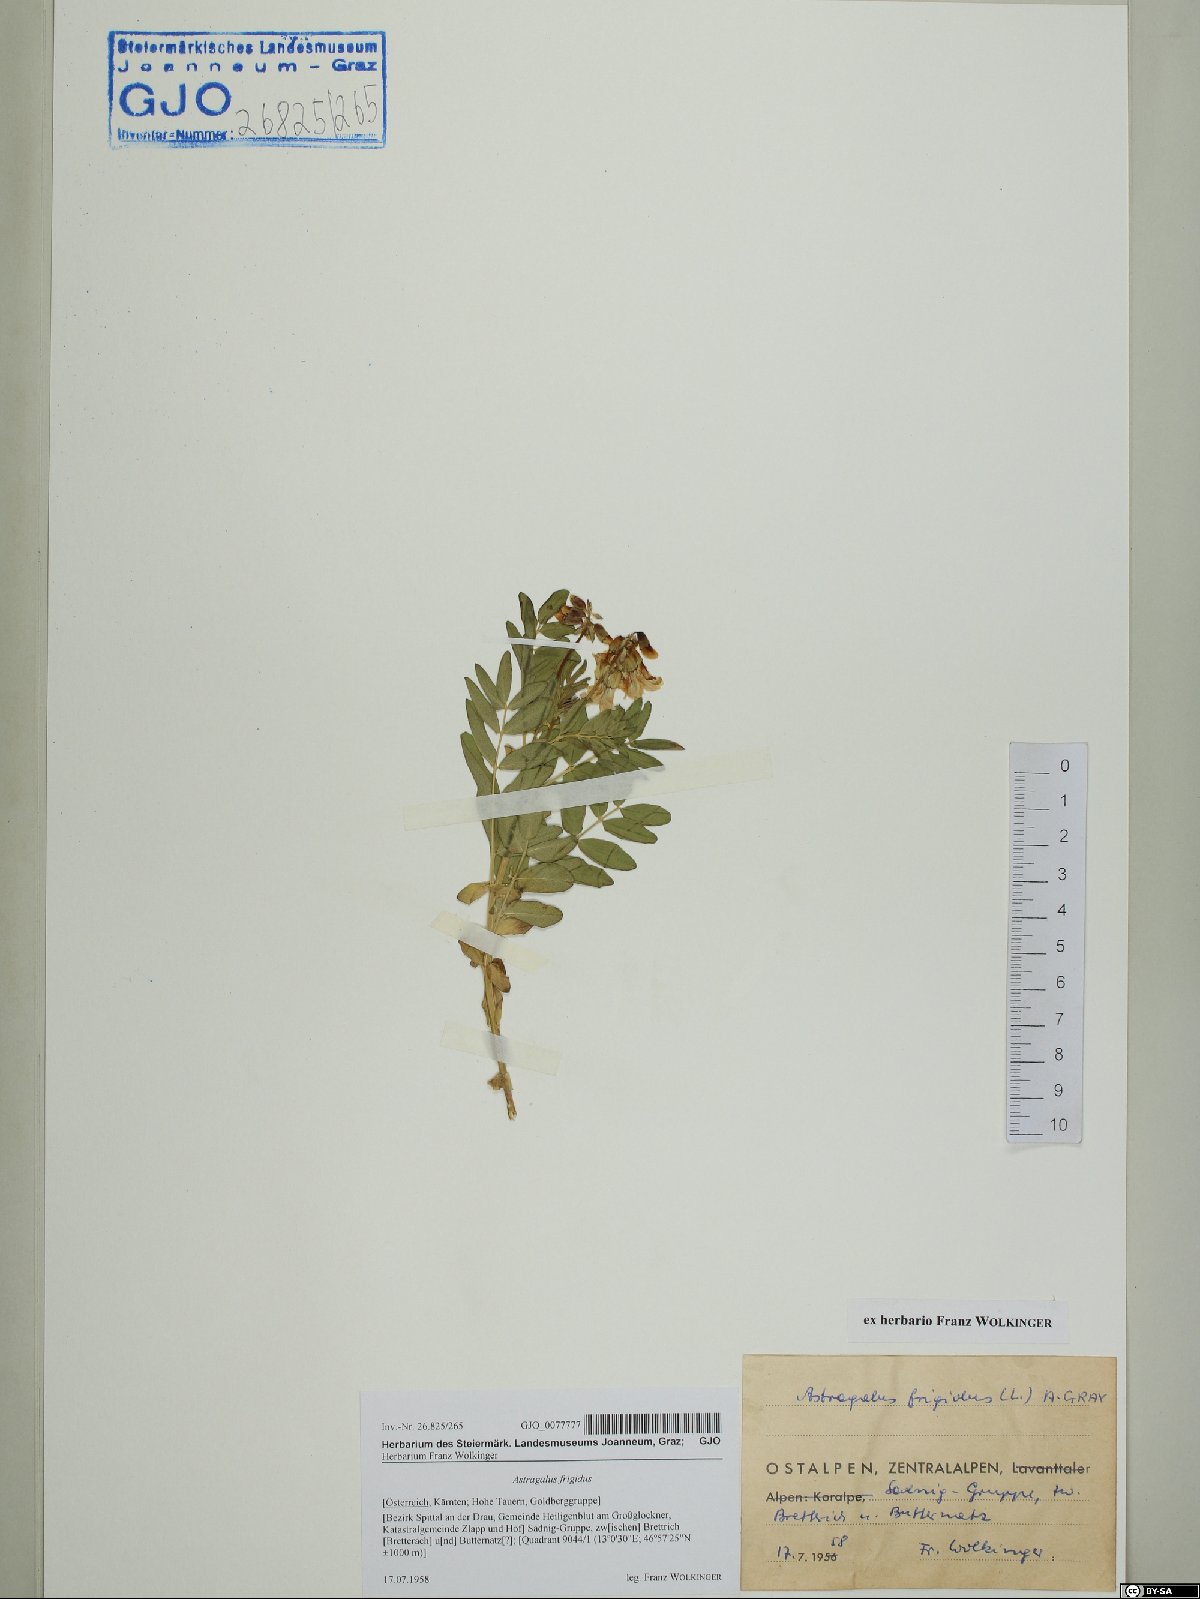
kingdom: Plantae
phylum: Tracheophyta
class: Magnoliopsida
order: Fabales
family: Fabaceae
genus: Astragalus
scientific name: Astragalus frigidus
